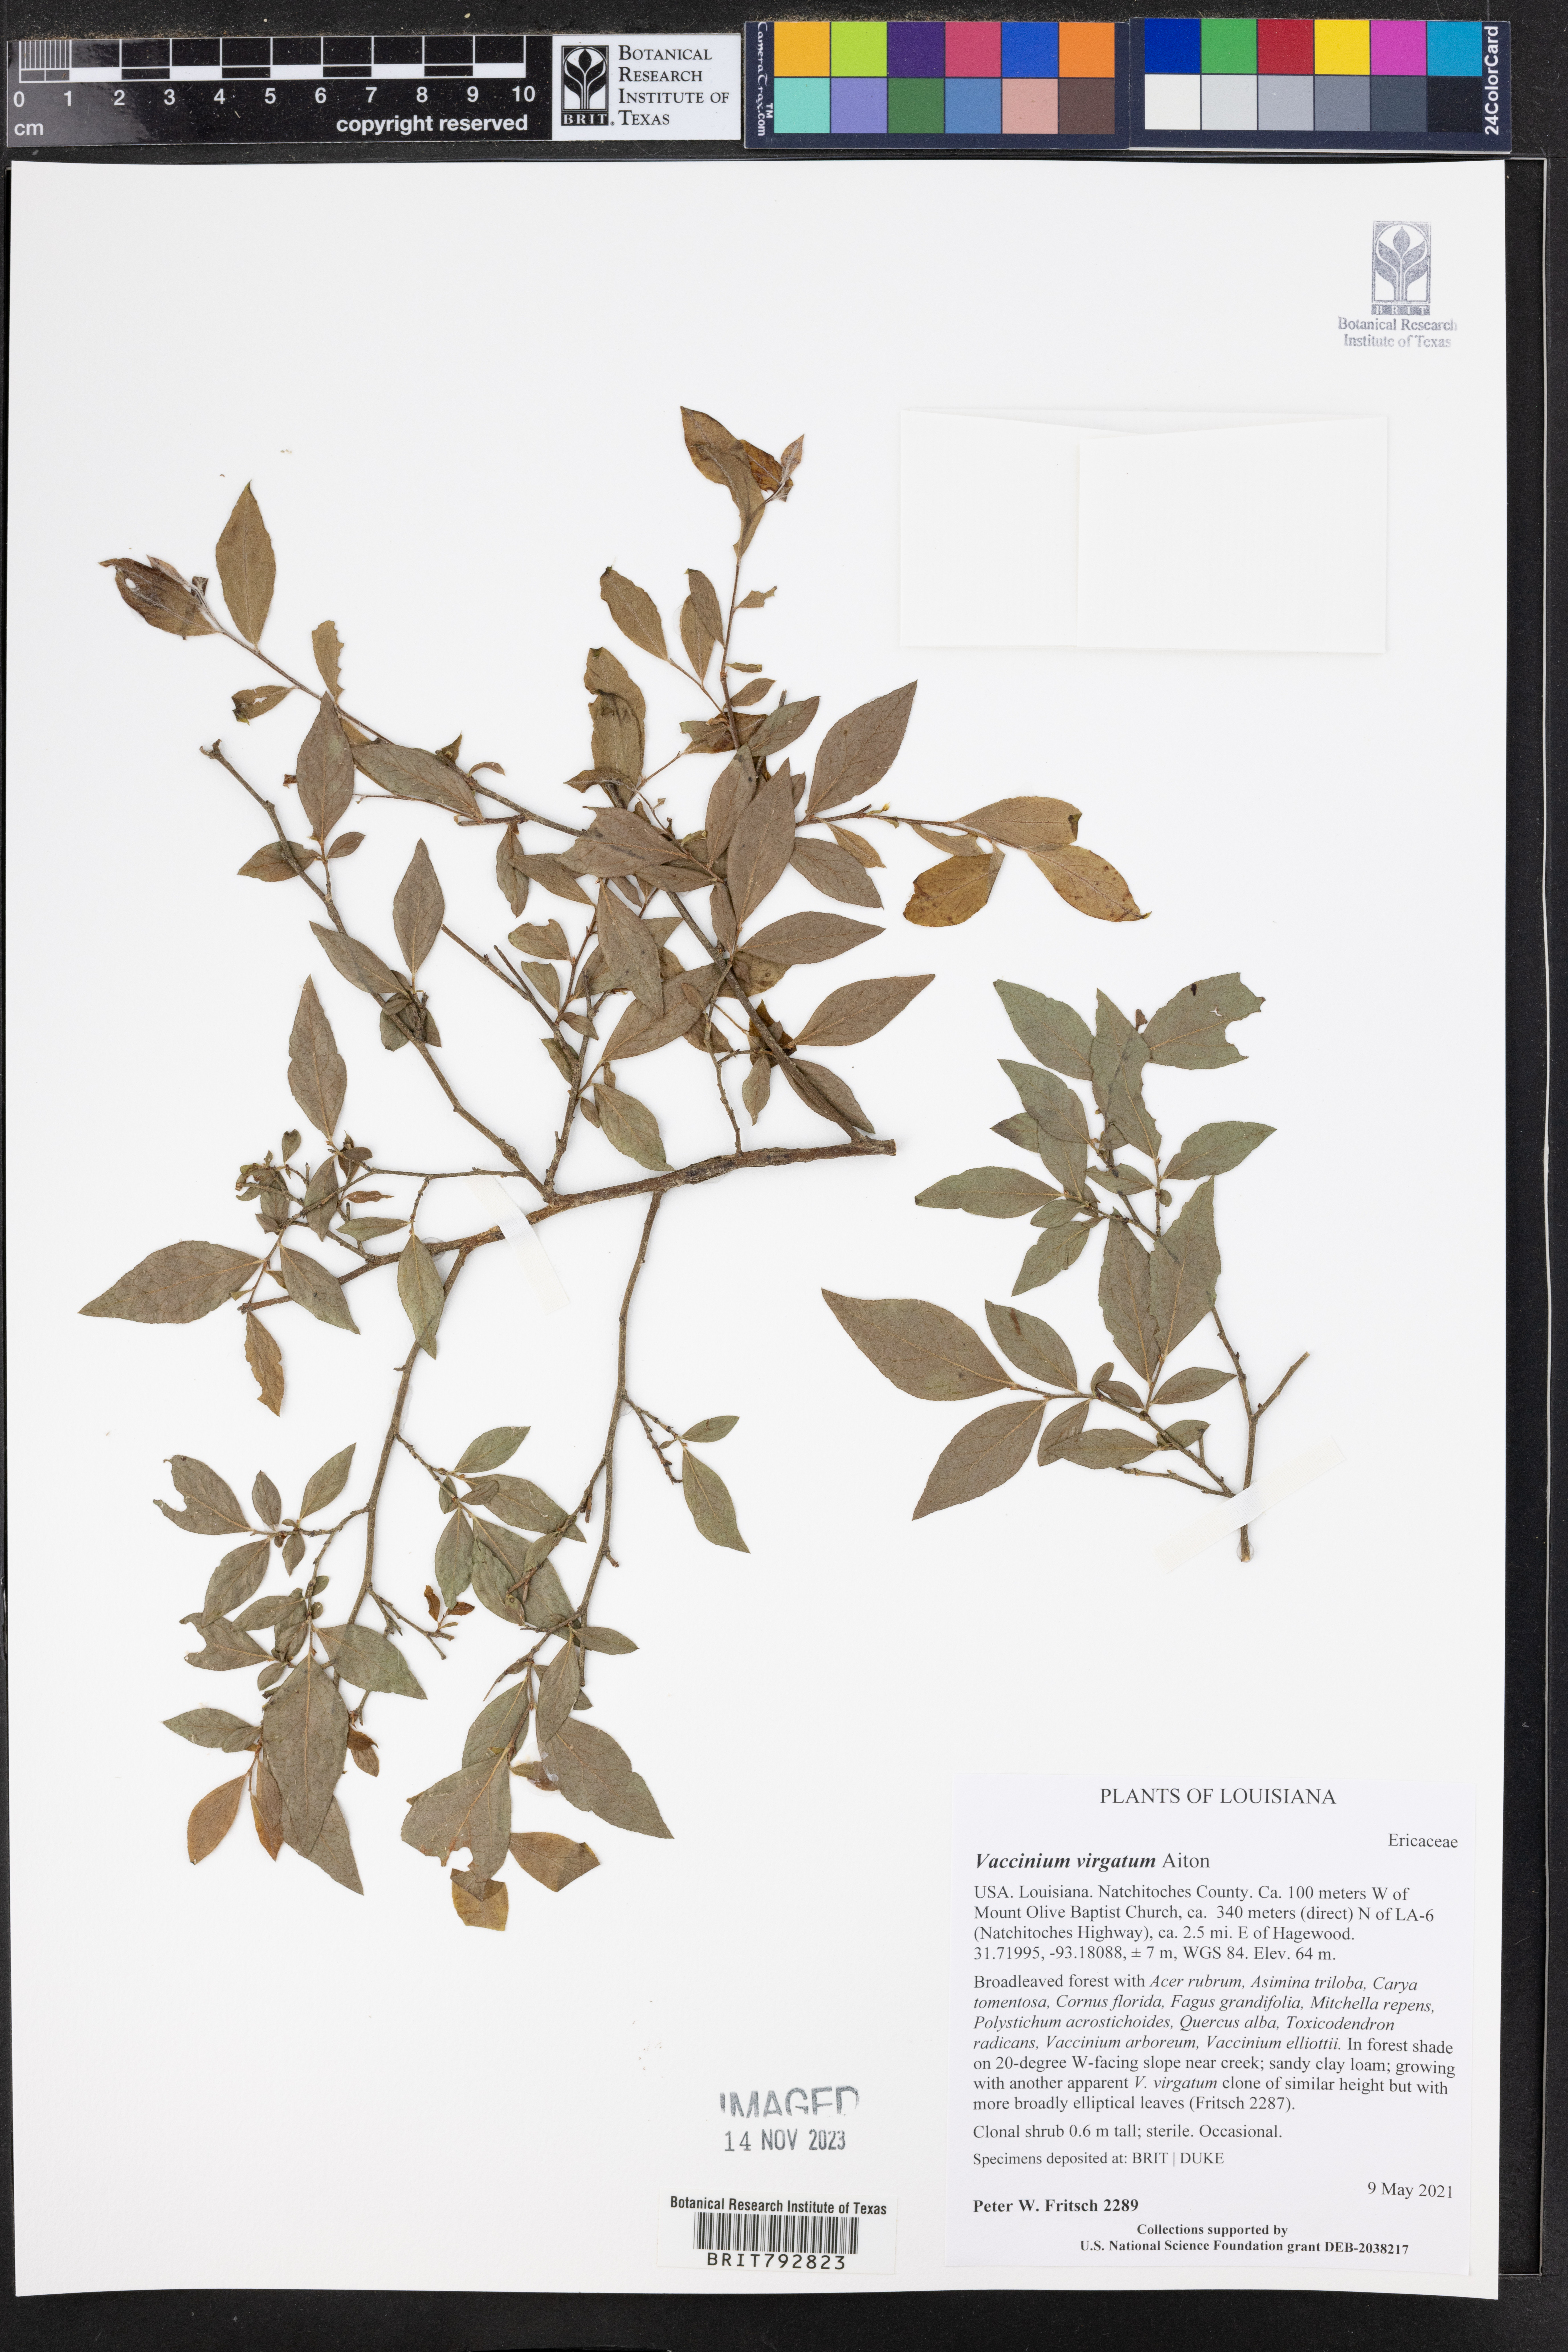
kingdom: Plantae
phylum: Tracheophyta
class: Magnoliopsida
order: Ericales
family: Ericaceae
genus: Vaccinium
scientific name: Vaccinium corymbosum
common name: Blueberry
